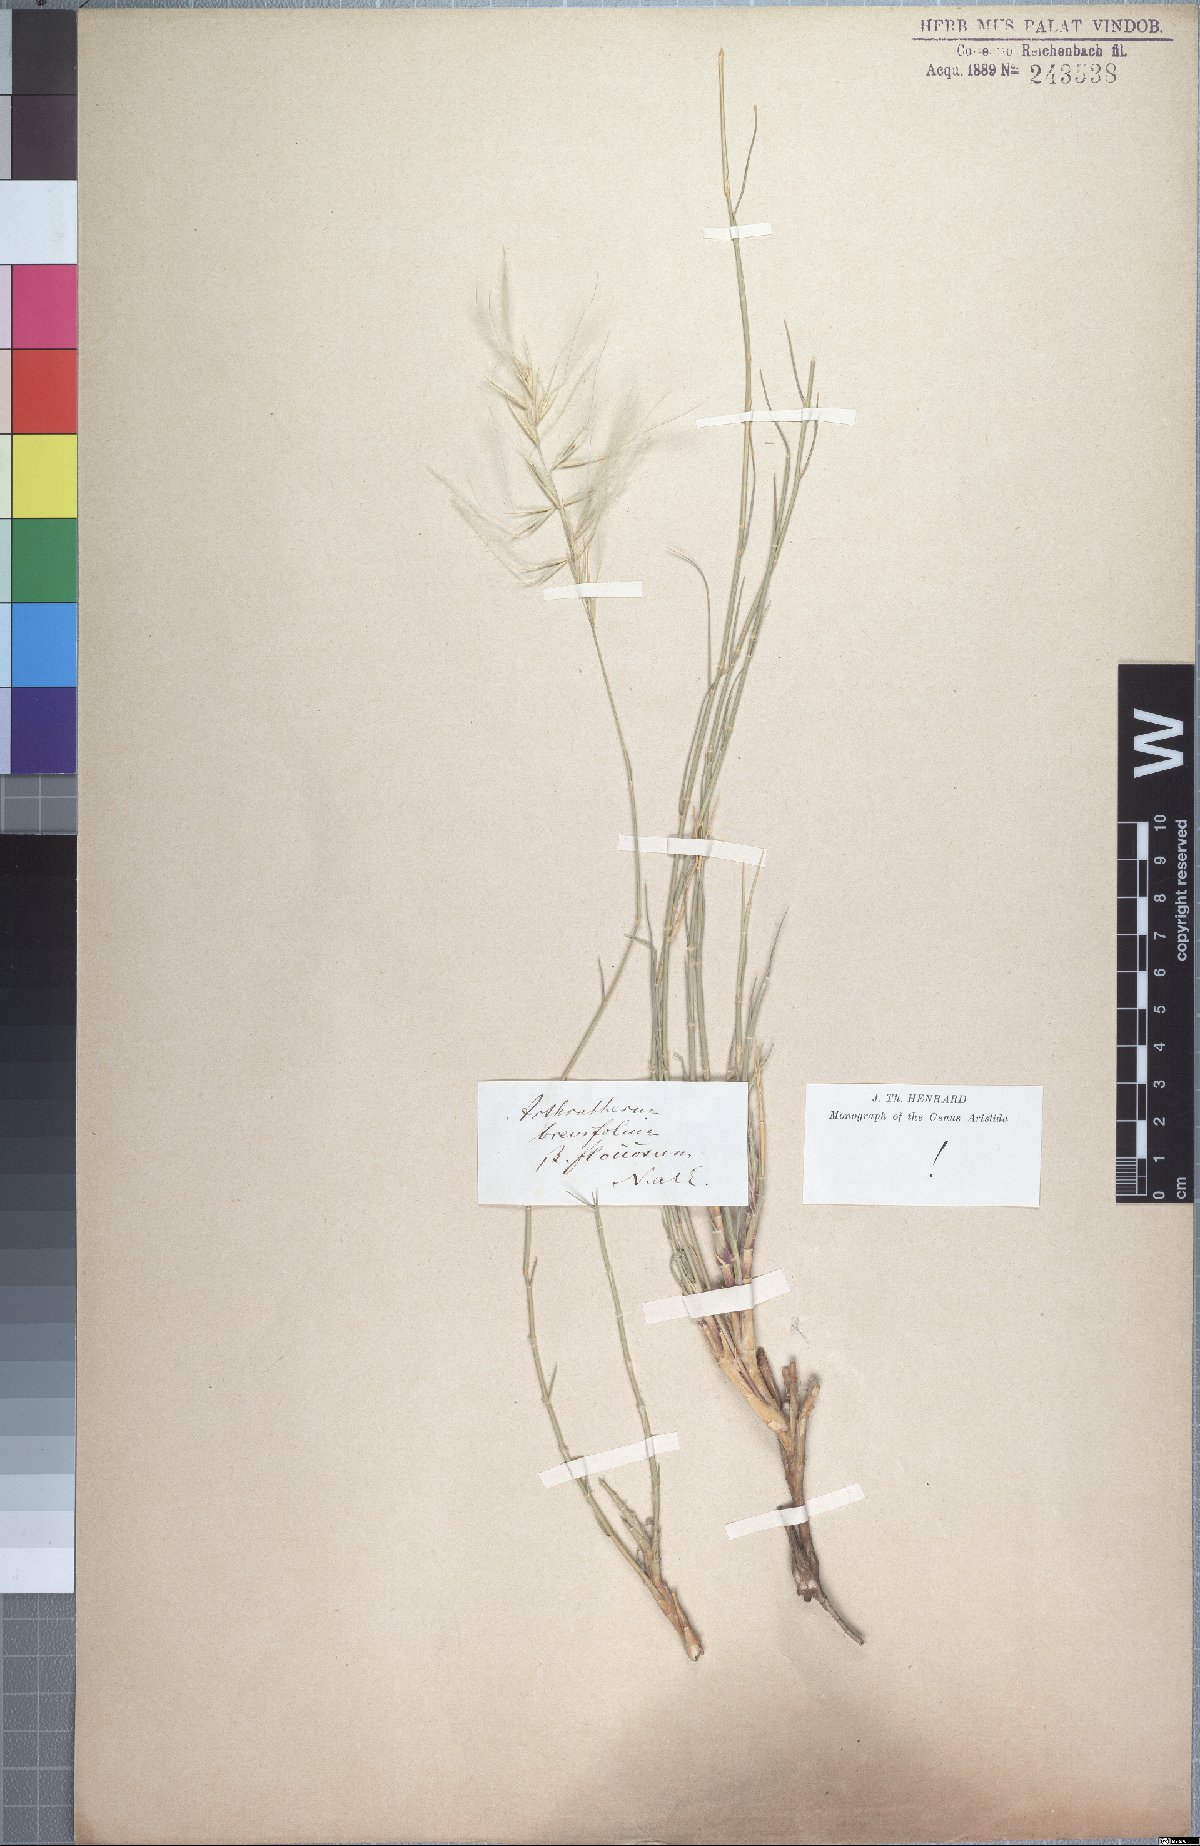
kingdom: Plantae
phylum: Tracheophyta
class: Liliopsida
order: Poales
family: Poaceae
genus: Stipagrostis
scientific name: Stipagrostis brevifolia
